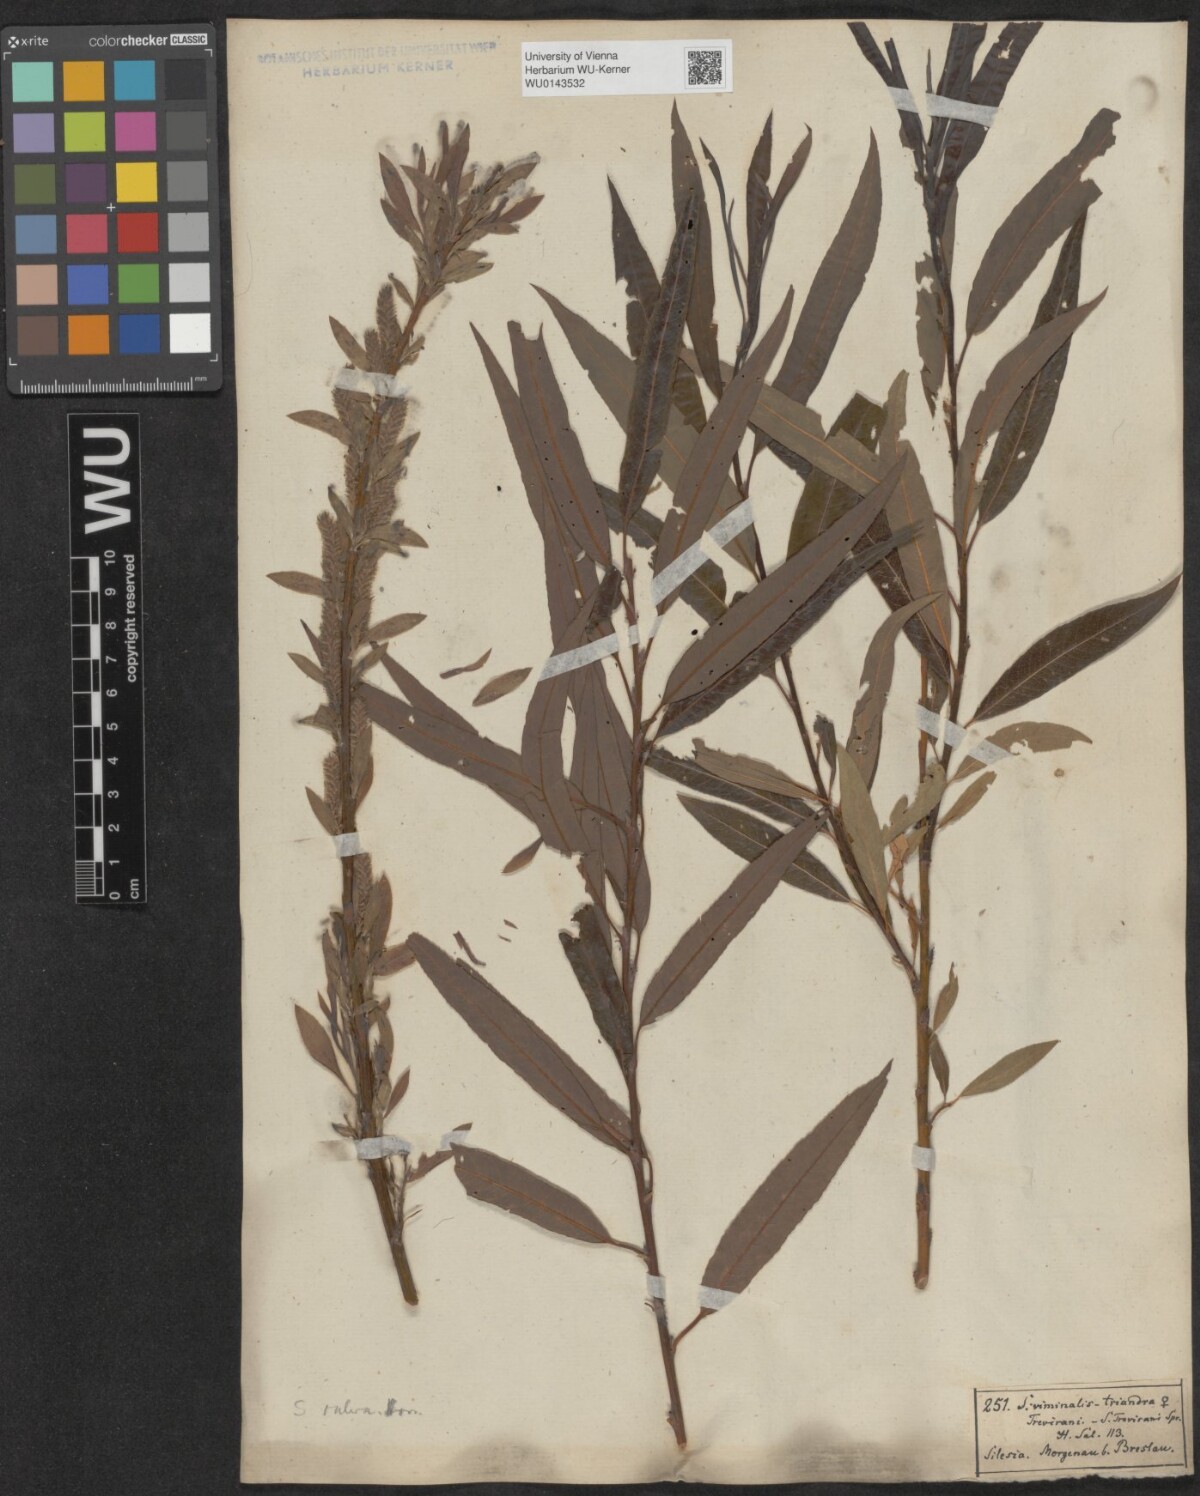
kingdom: Plantae
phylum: Tracheophyta
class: Magnoliopsida
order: Malpighiales
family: Salicaceae
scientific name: Salicaceae
